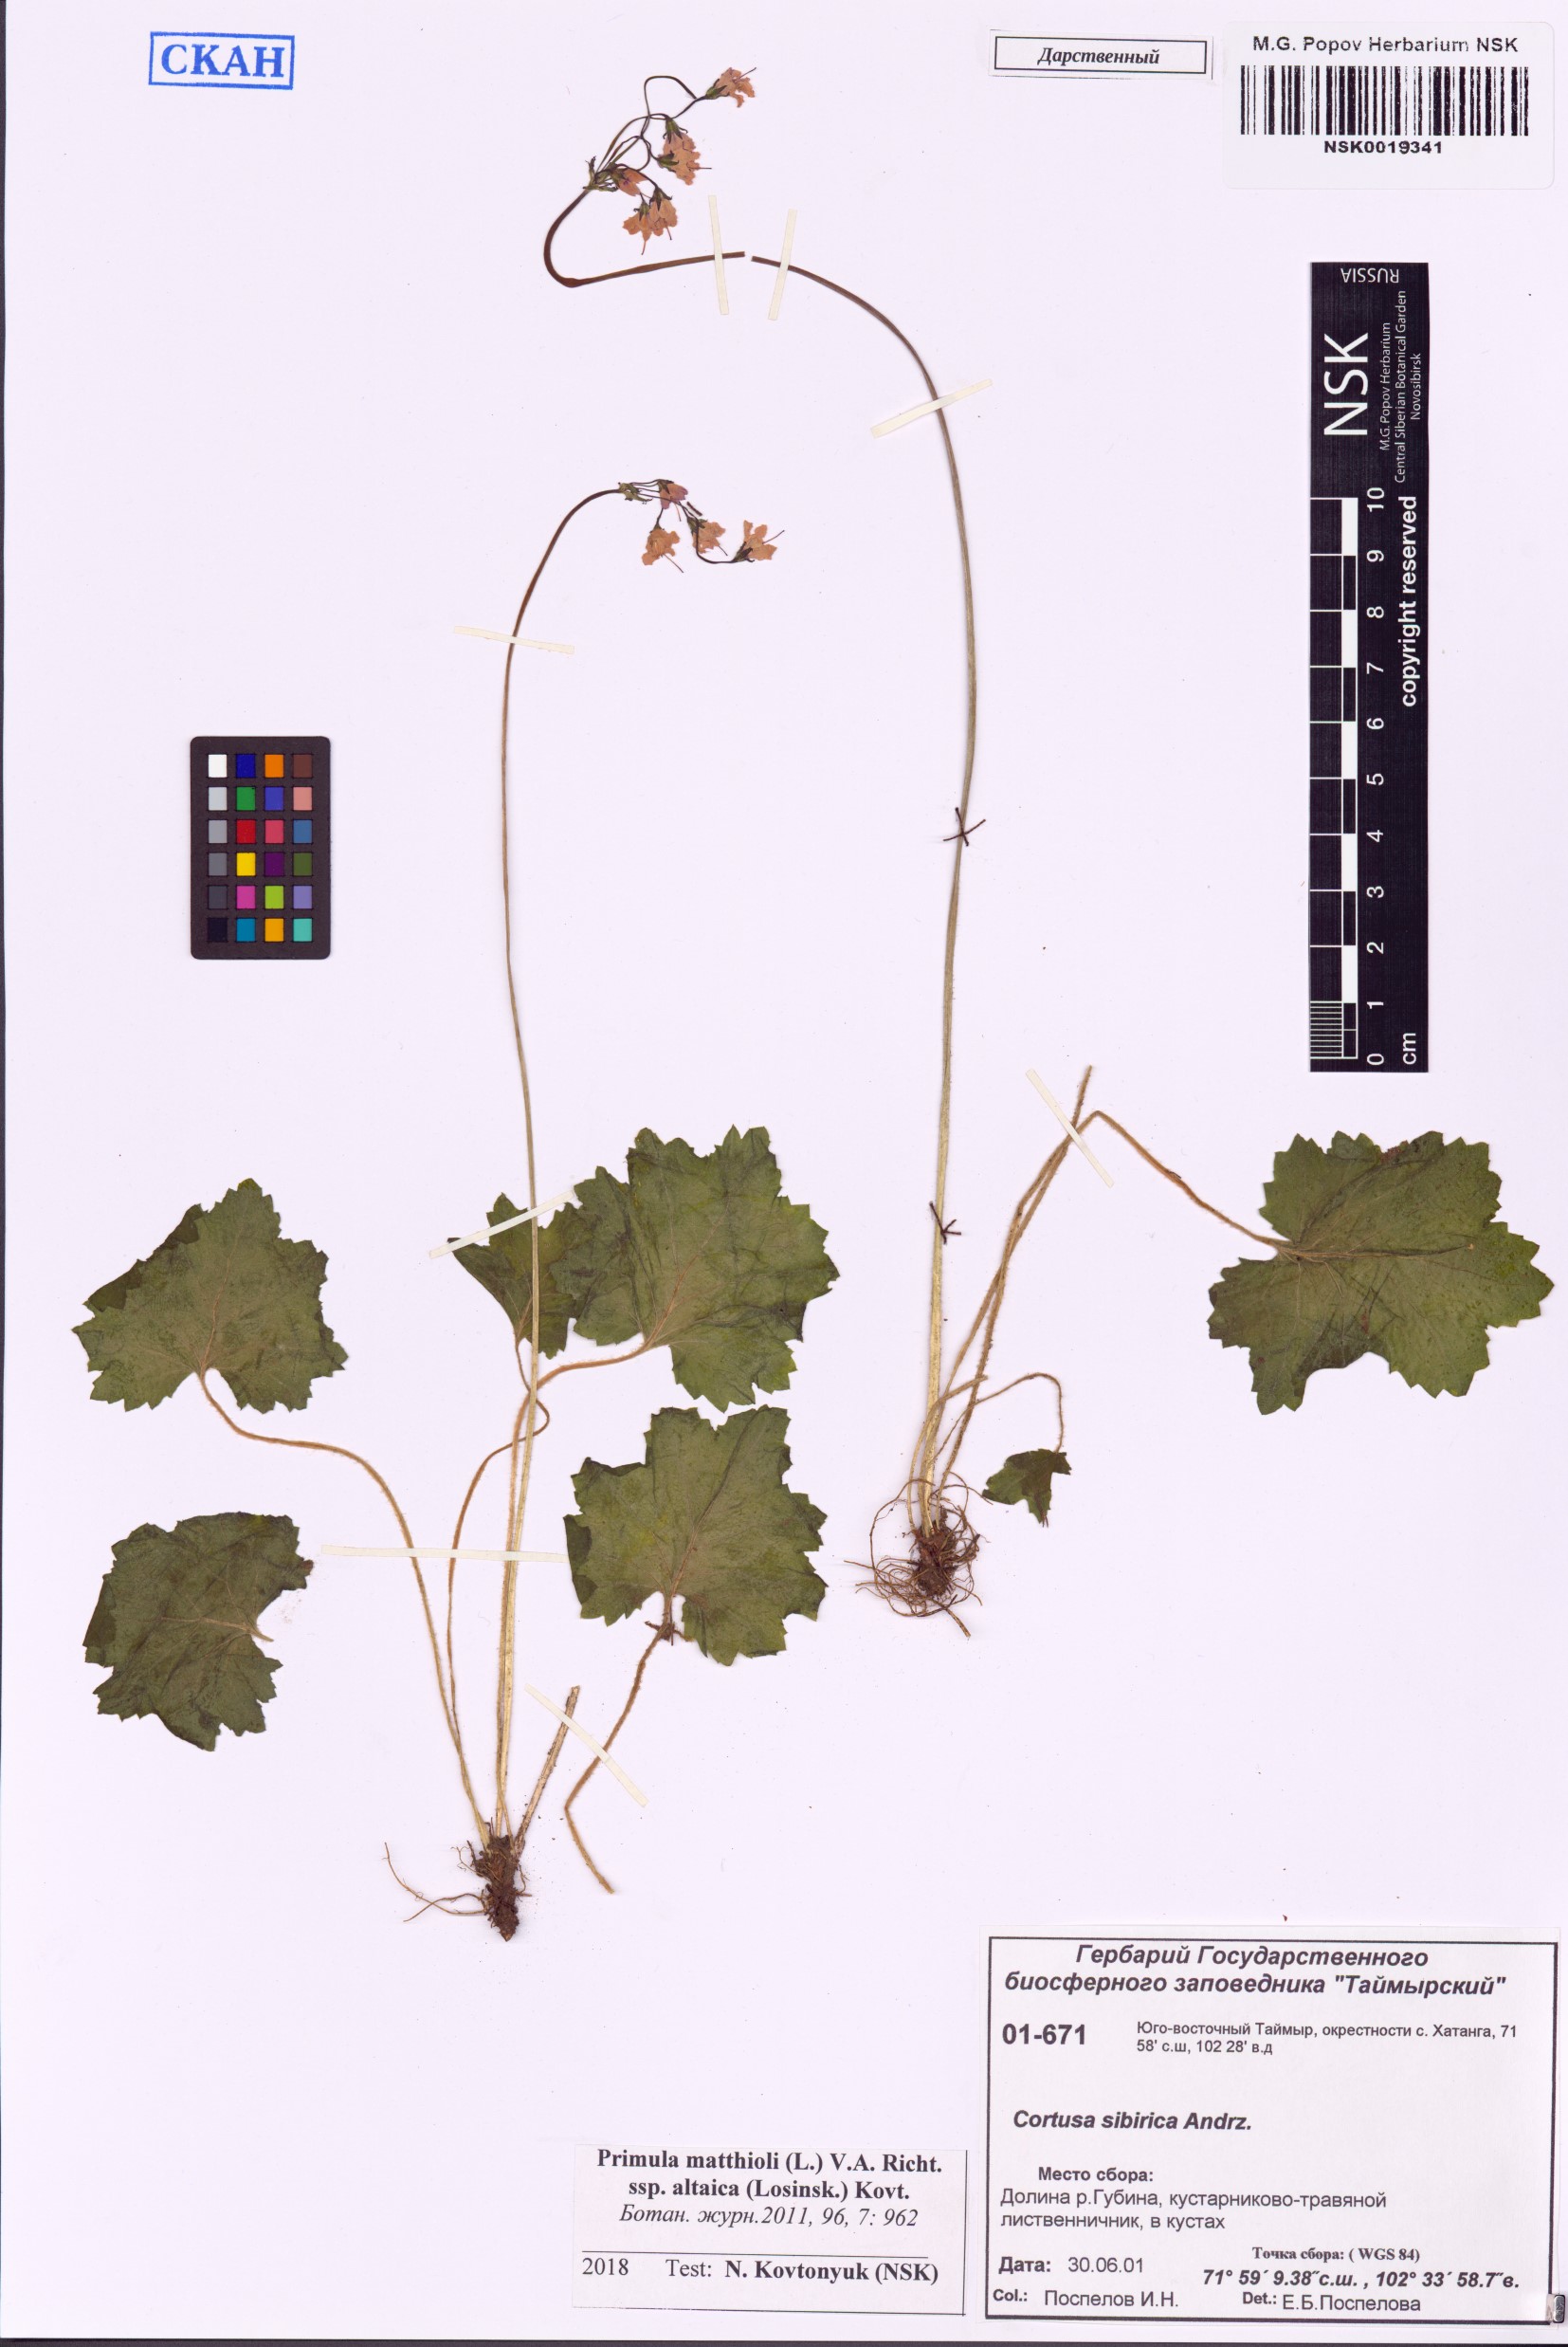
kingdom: Plantae
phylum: Tracheophyta
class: Magnoliopsida
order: Ericales
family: Primulaceae
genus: Primula
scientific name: Primula matthioli
